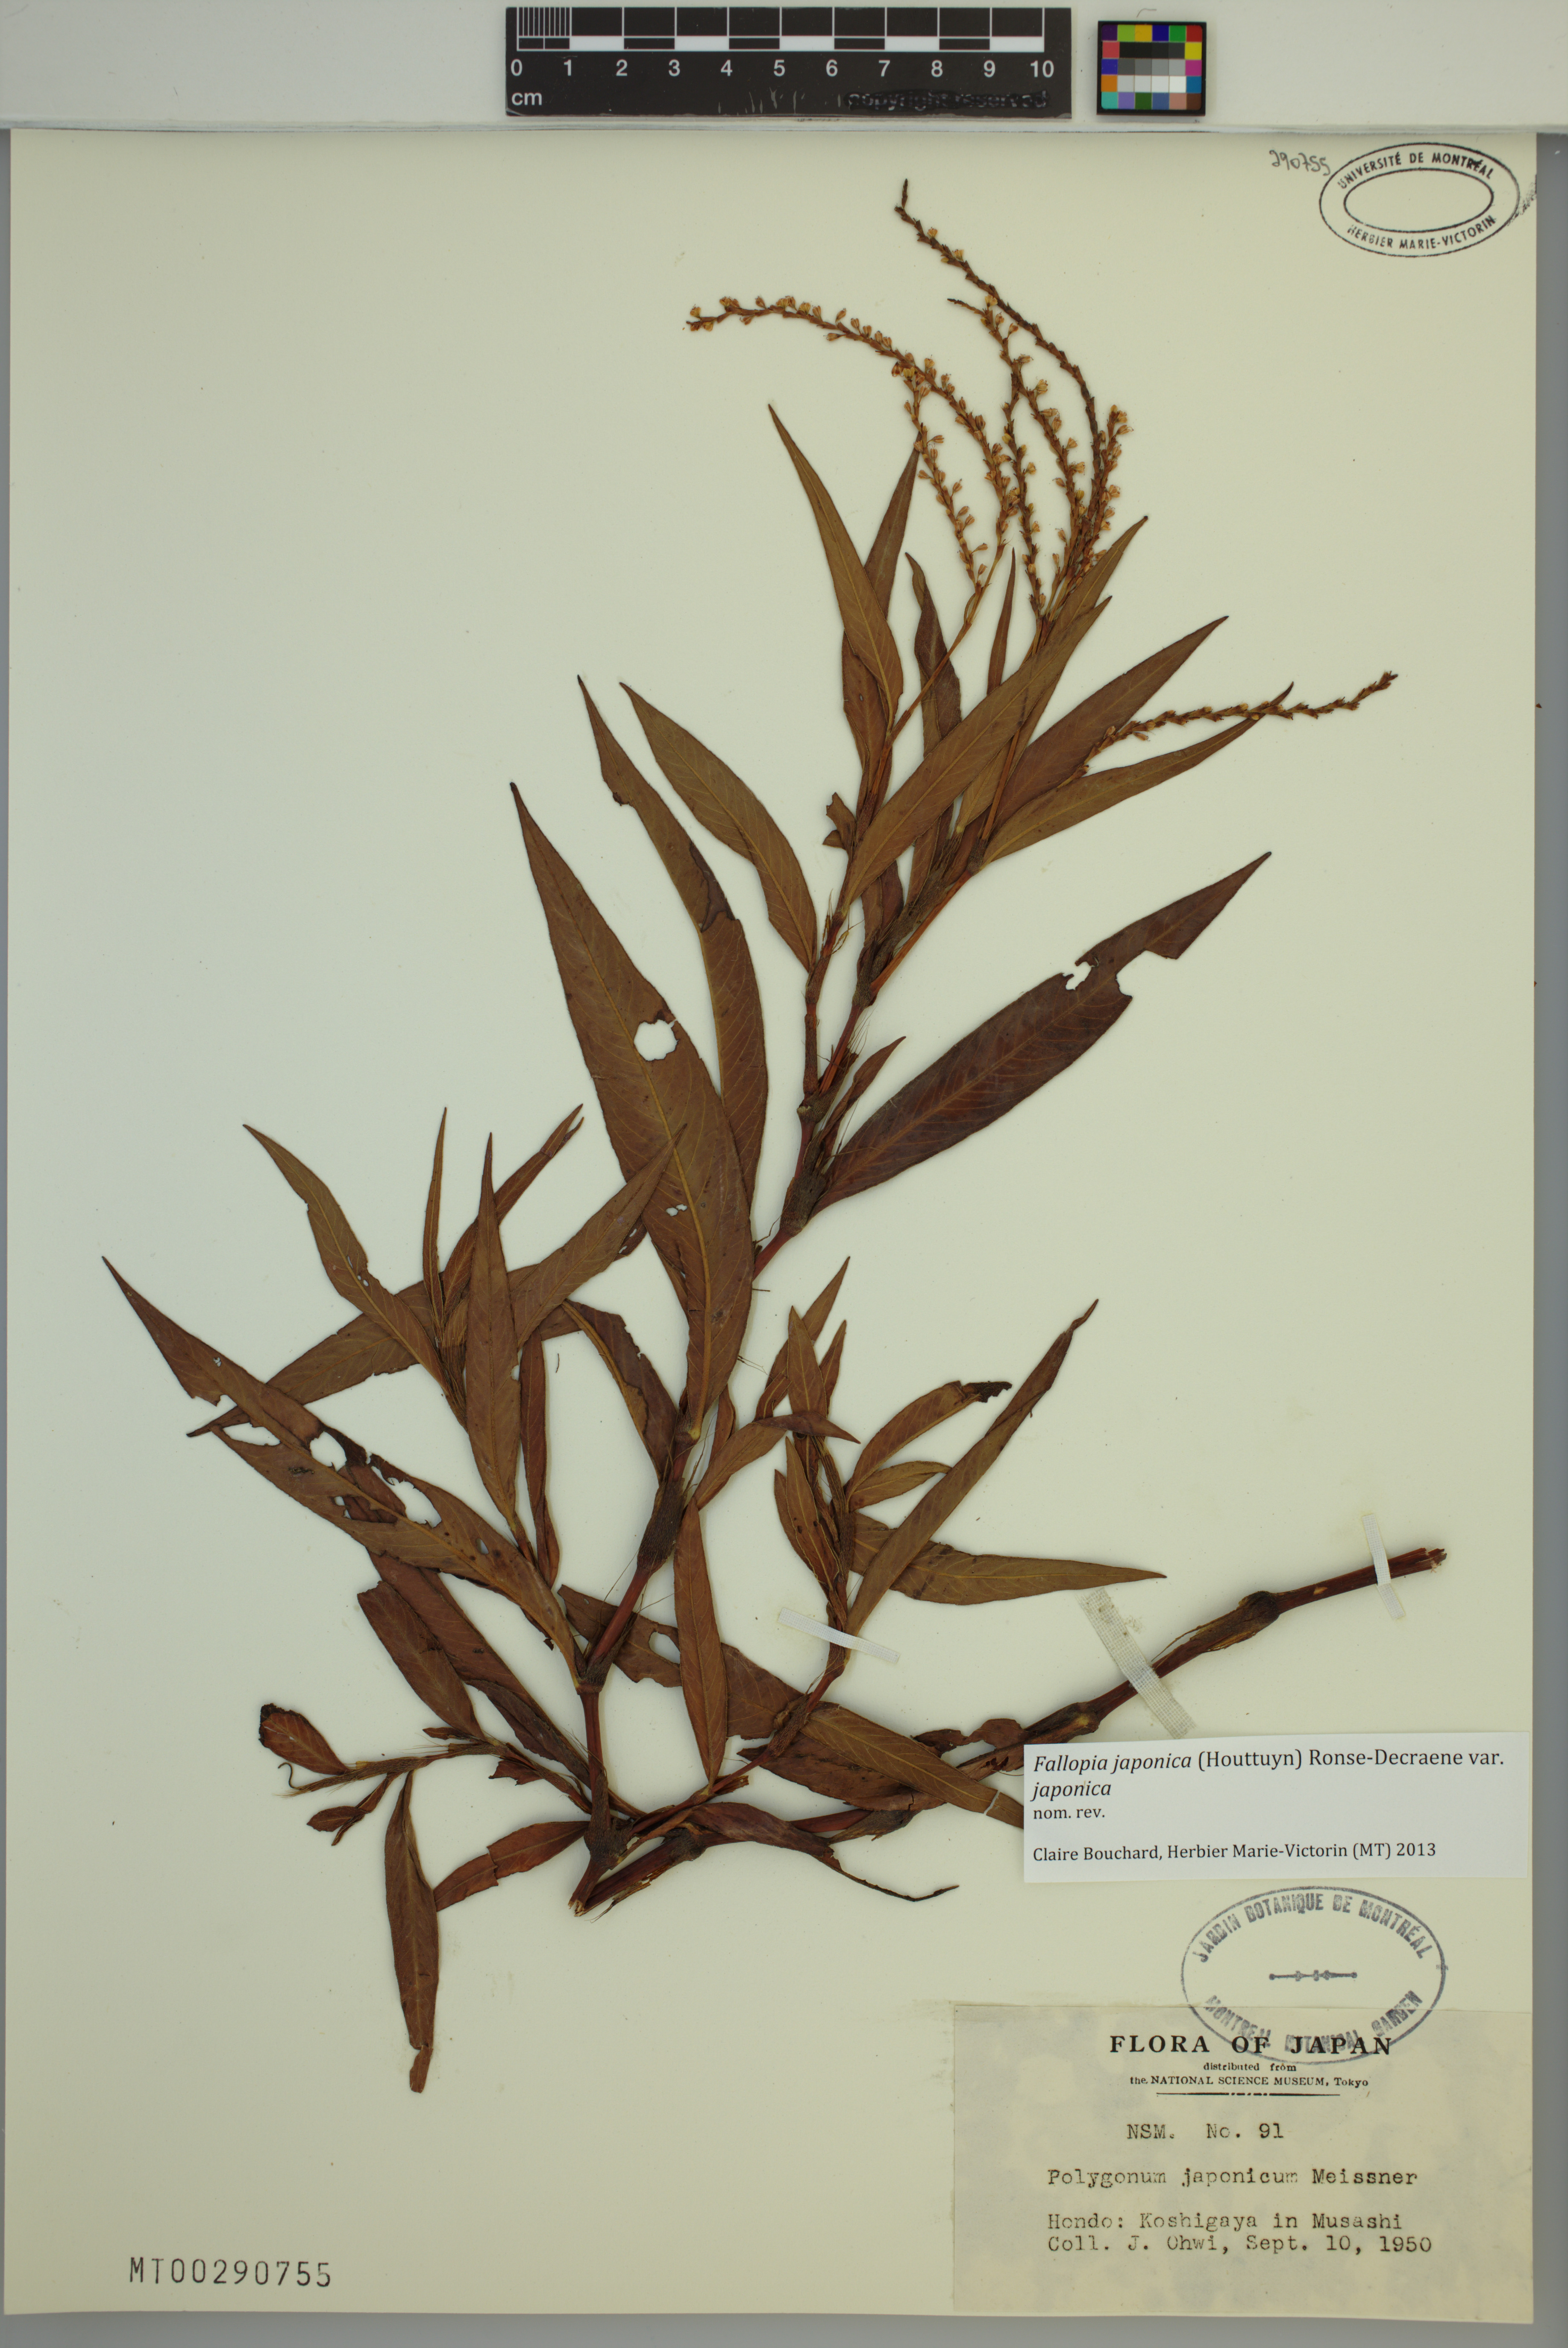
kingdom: Plantae
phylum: Tracheophyta
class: Magnoliopsida
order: Caryophyllales
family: Polygonaceae
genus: Reynoutria
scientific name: Reynoutria japonica
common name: Japanese knotweed
